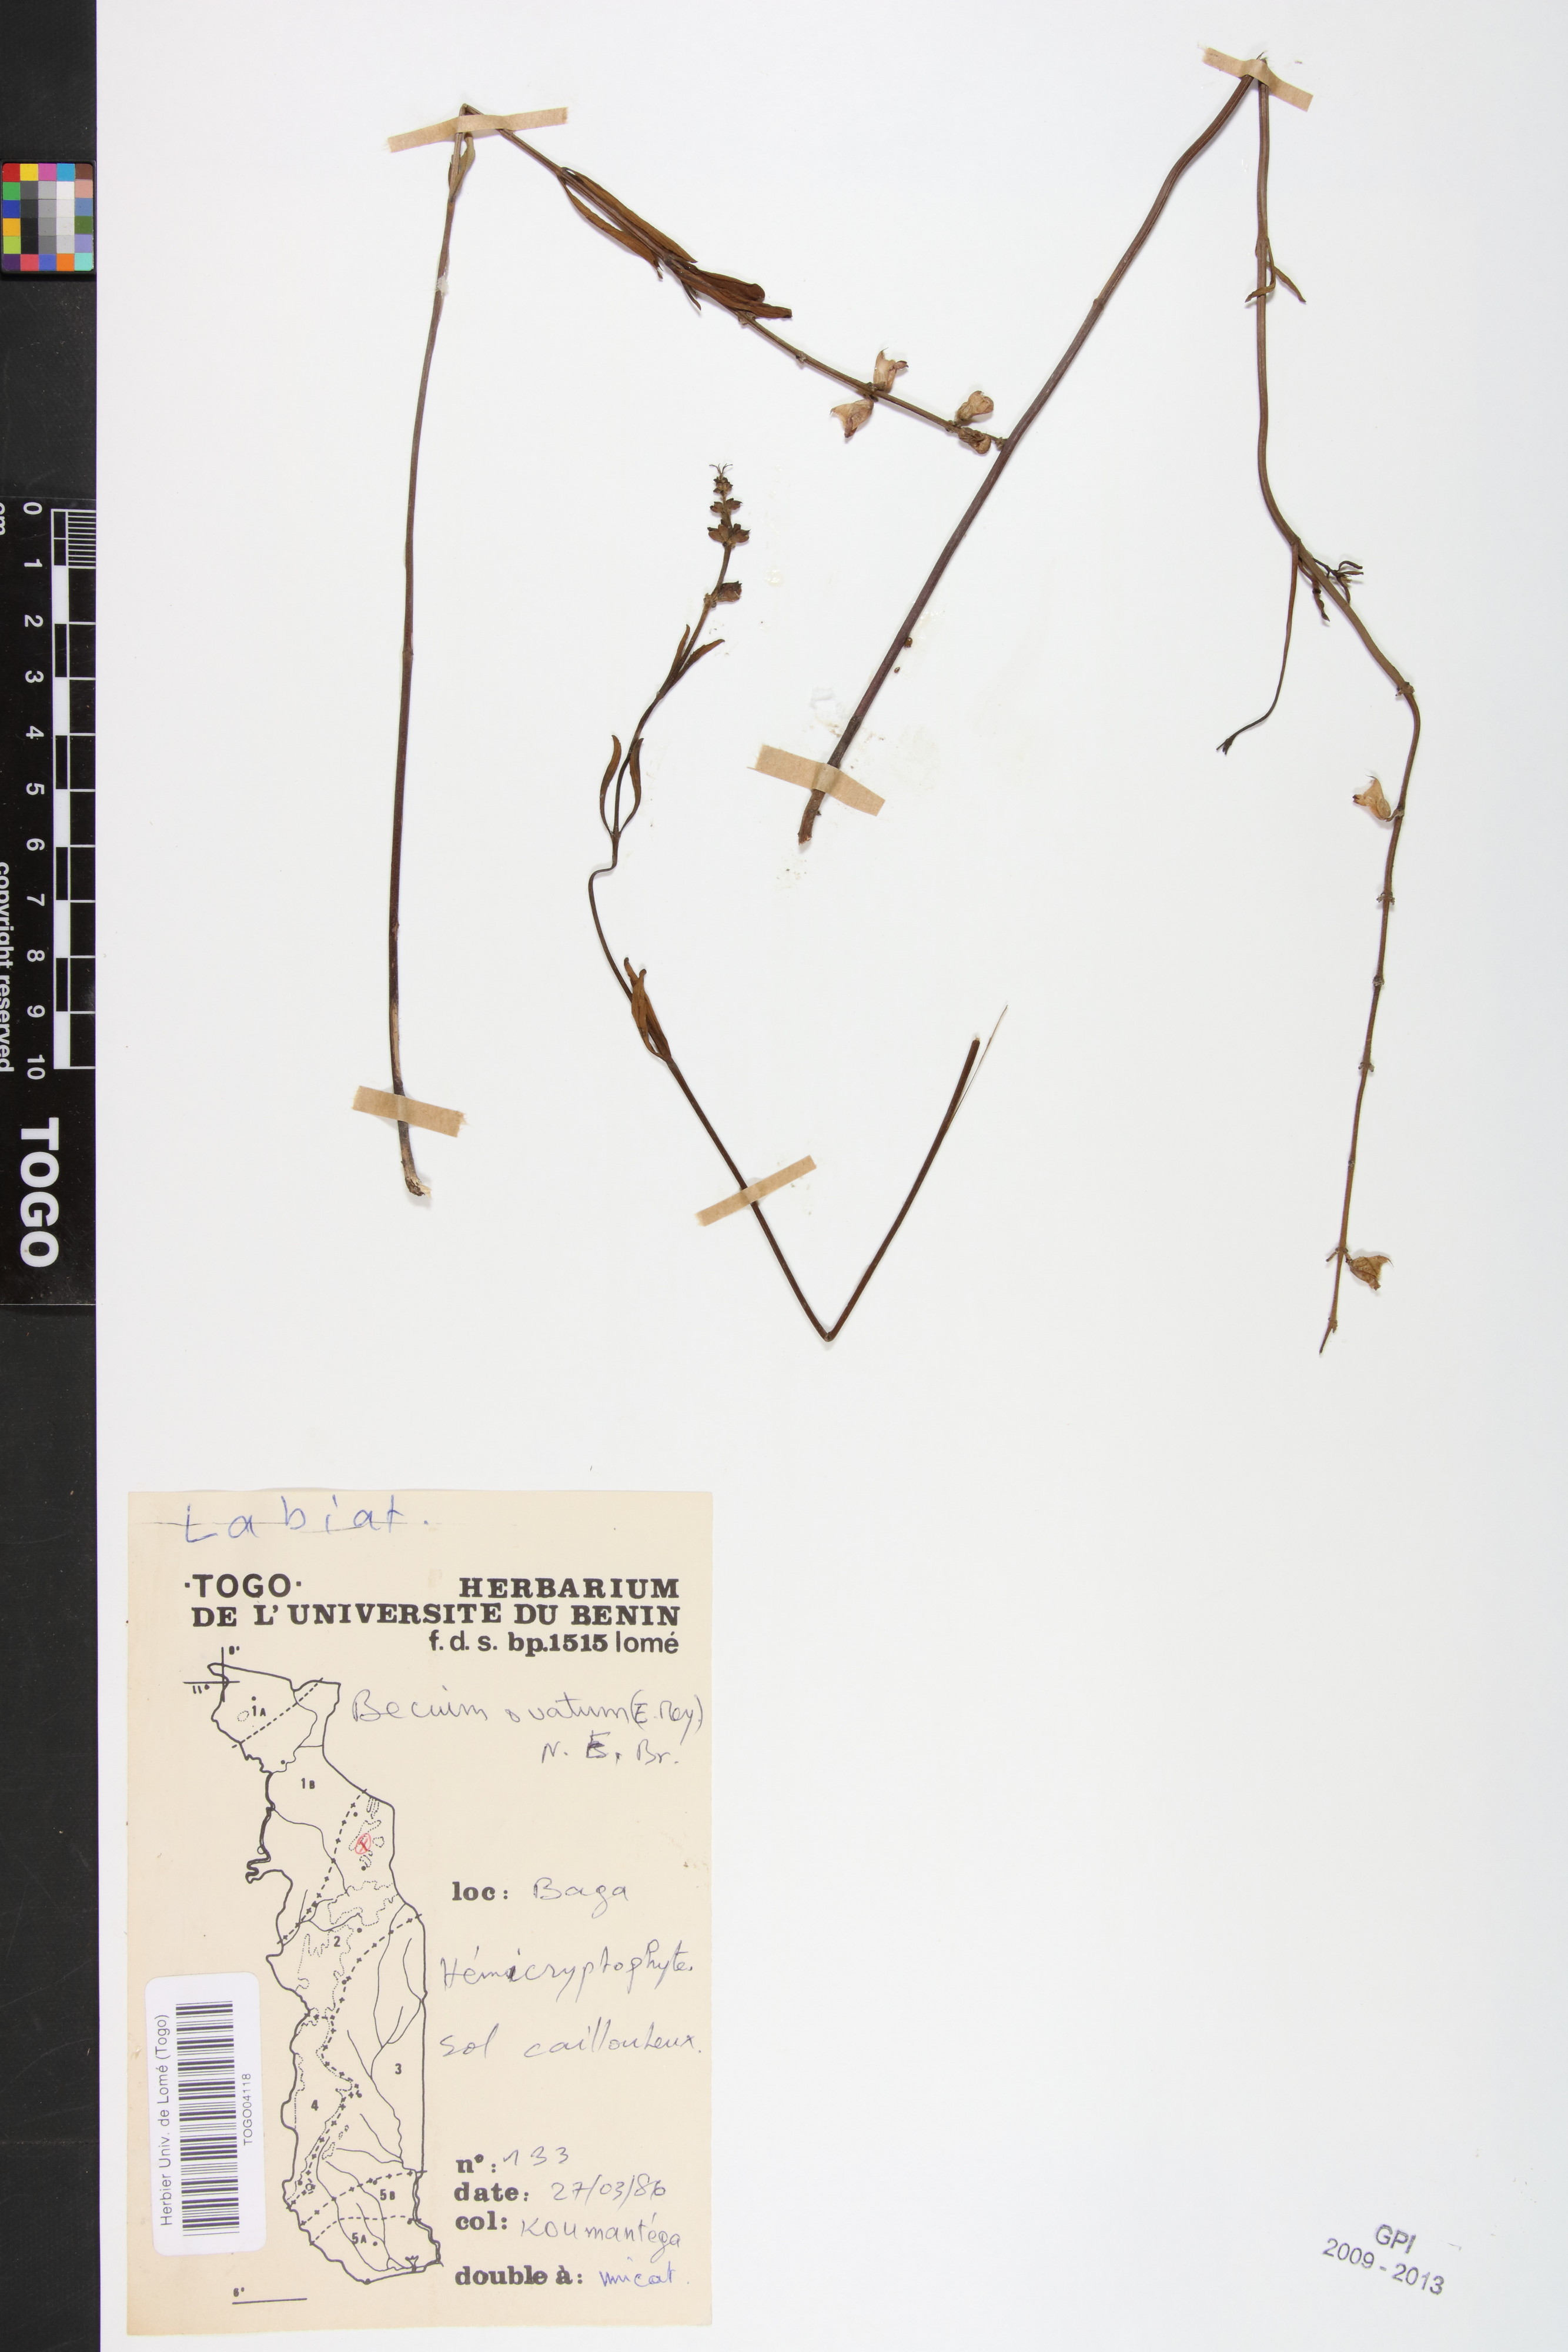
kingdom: Plantae
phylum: Tracheophyta
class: Magnoliopsida
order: Lamiales
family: Lamiaceae
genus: Ocimum
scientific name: Ocimum obovatum
